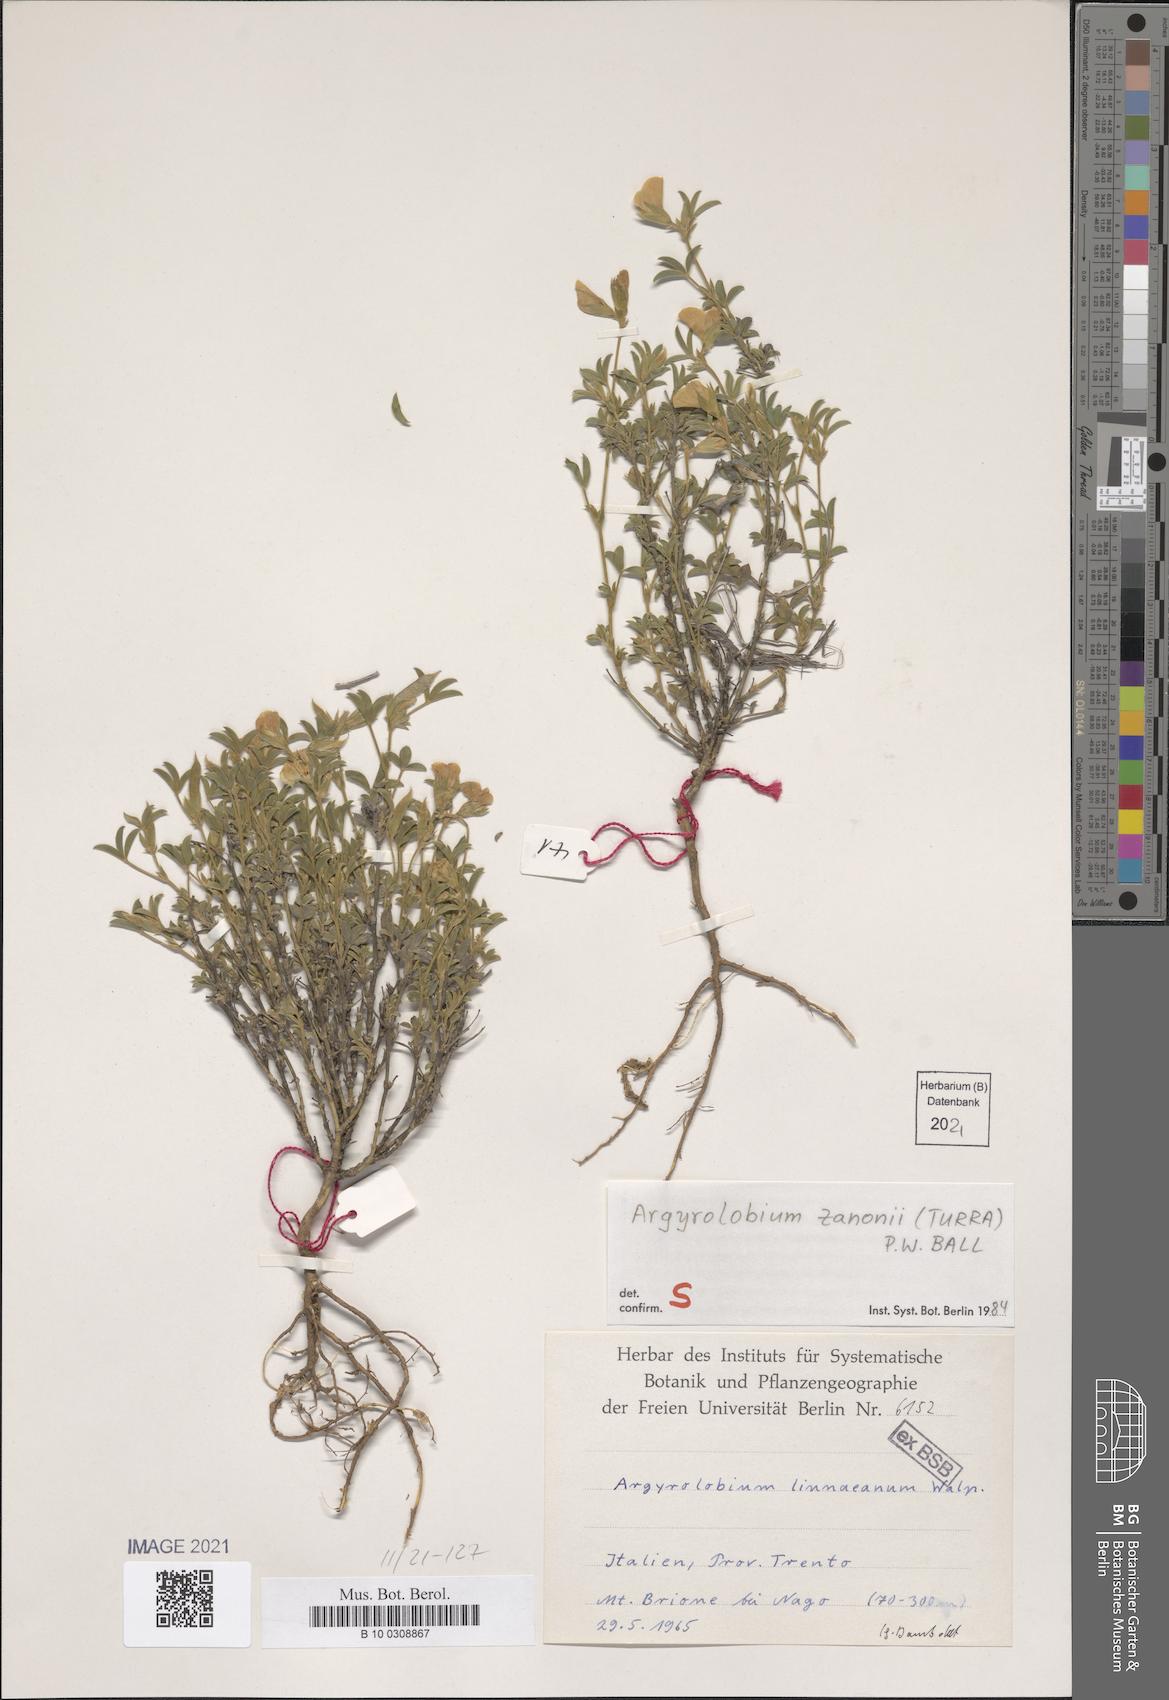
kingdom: Plantae
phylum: Tracheophyta
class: Magnoliopsida
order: Fabales
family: Fabaceae
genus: Argyrolobium
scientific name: Argyrolobium zanonii
